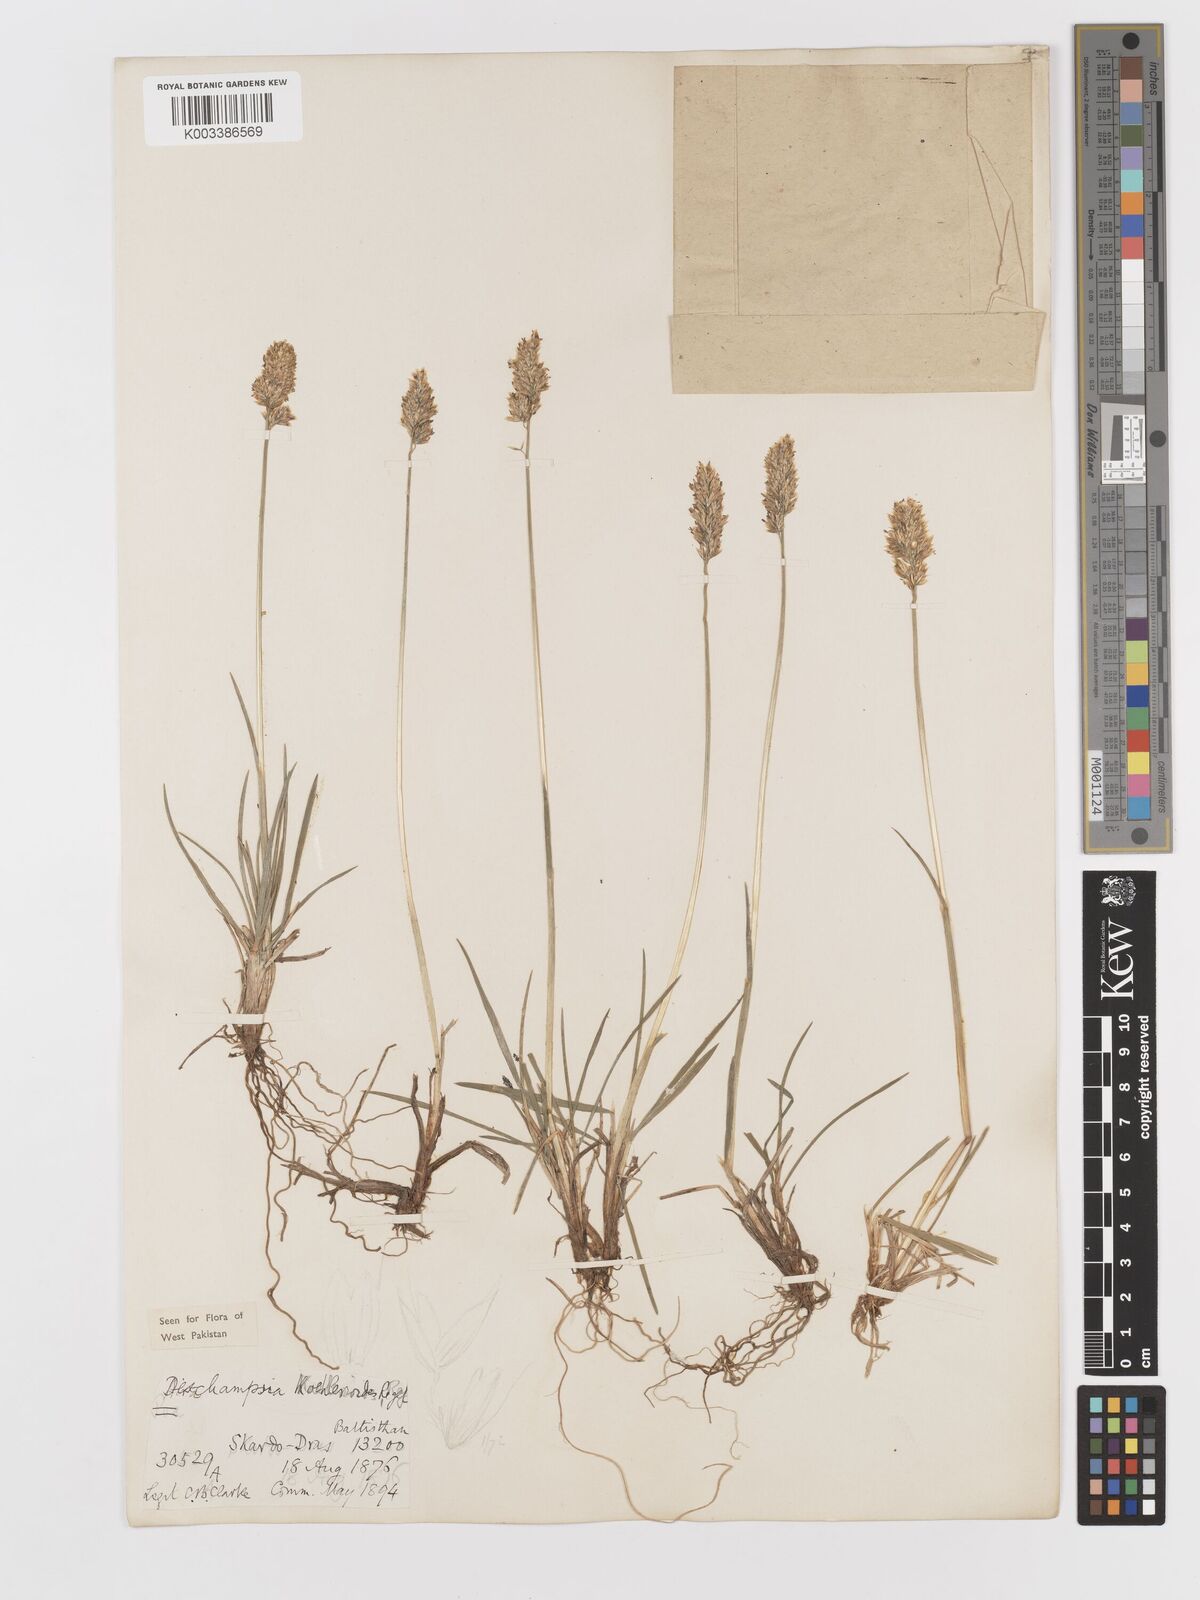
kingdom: Plantae
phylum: Tracheophyta
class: Liliopsida
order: Poales
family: Poaceae
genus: Deschampsia
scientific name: Deschampsia koelerioides
